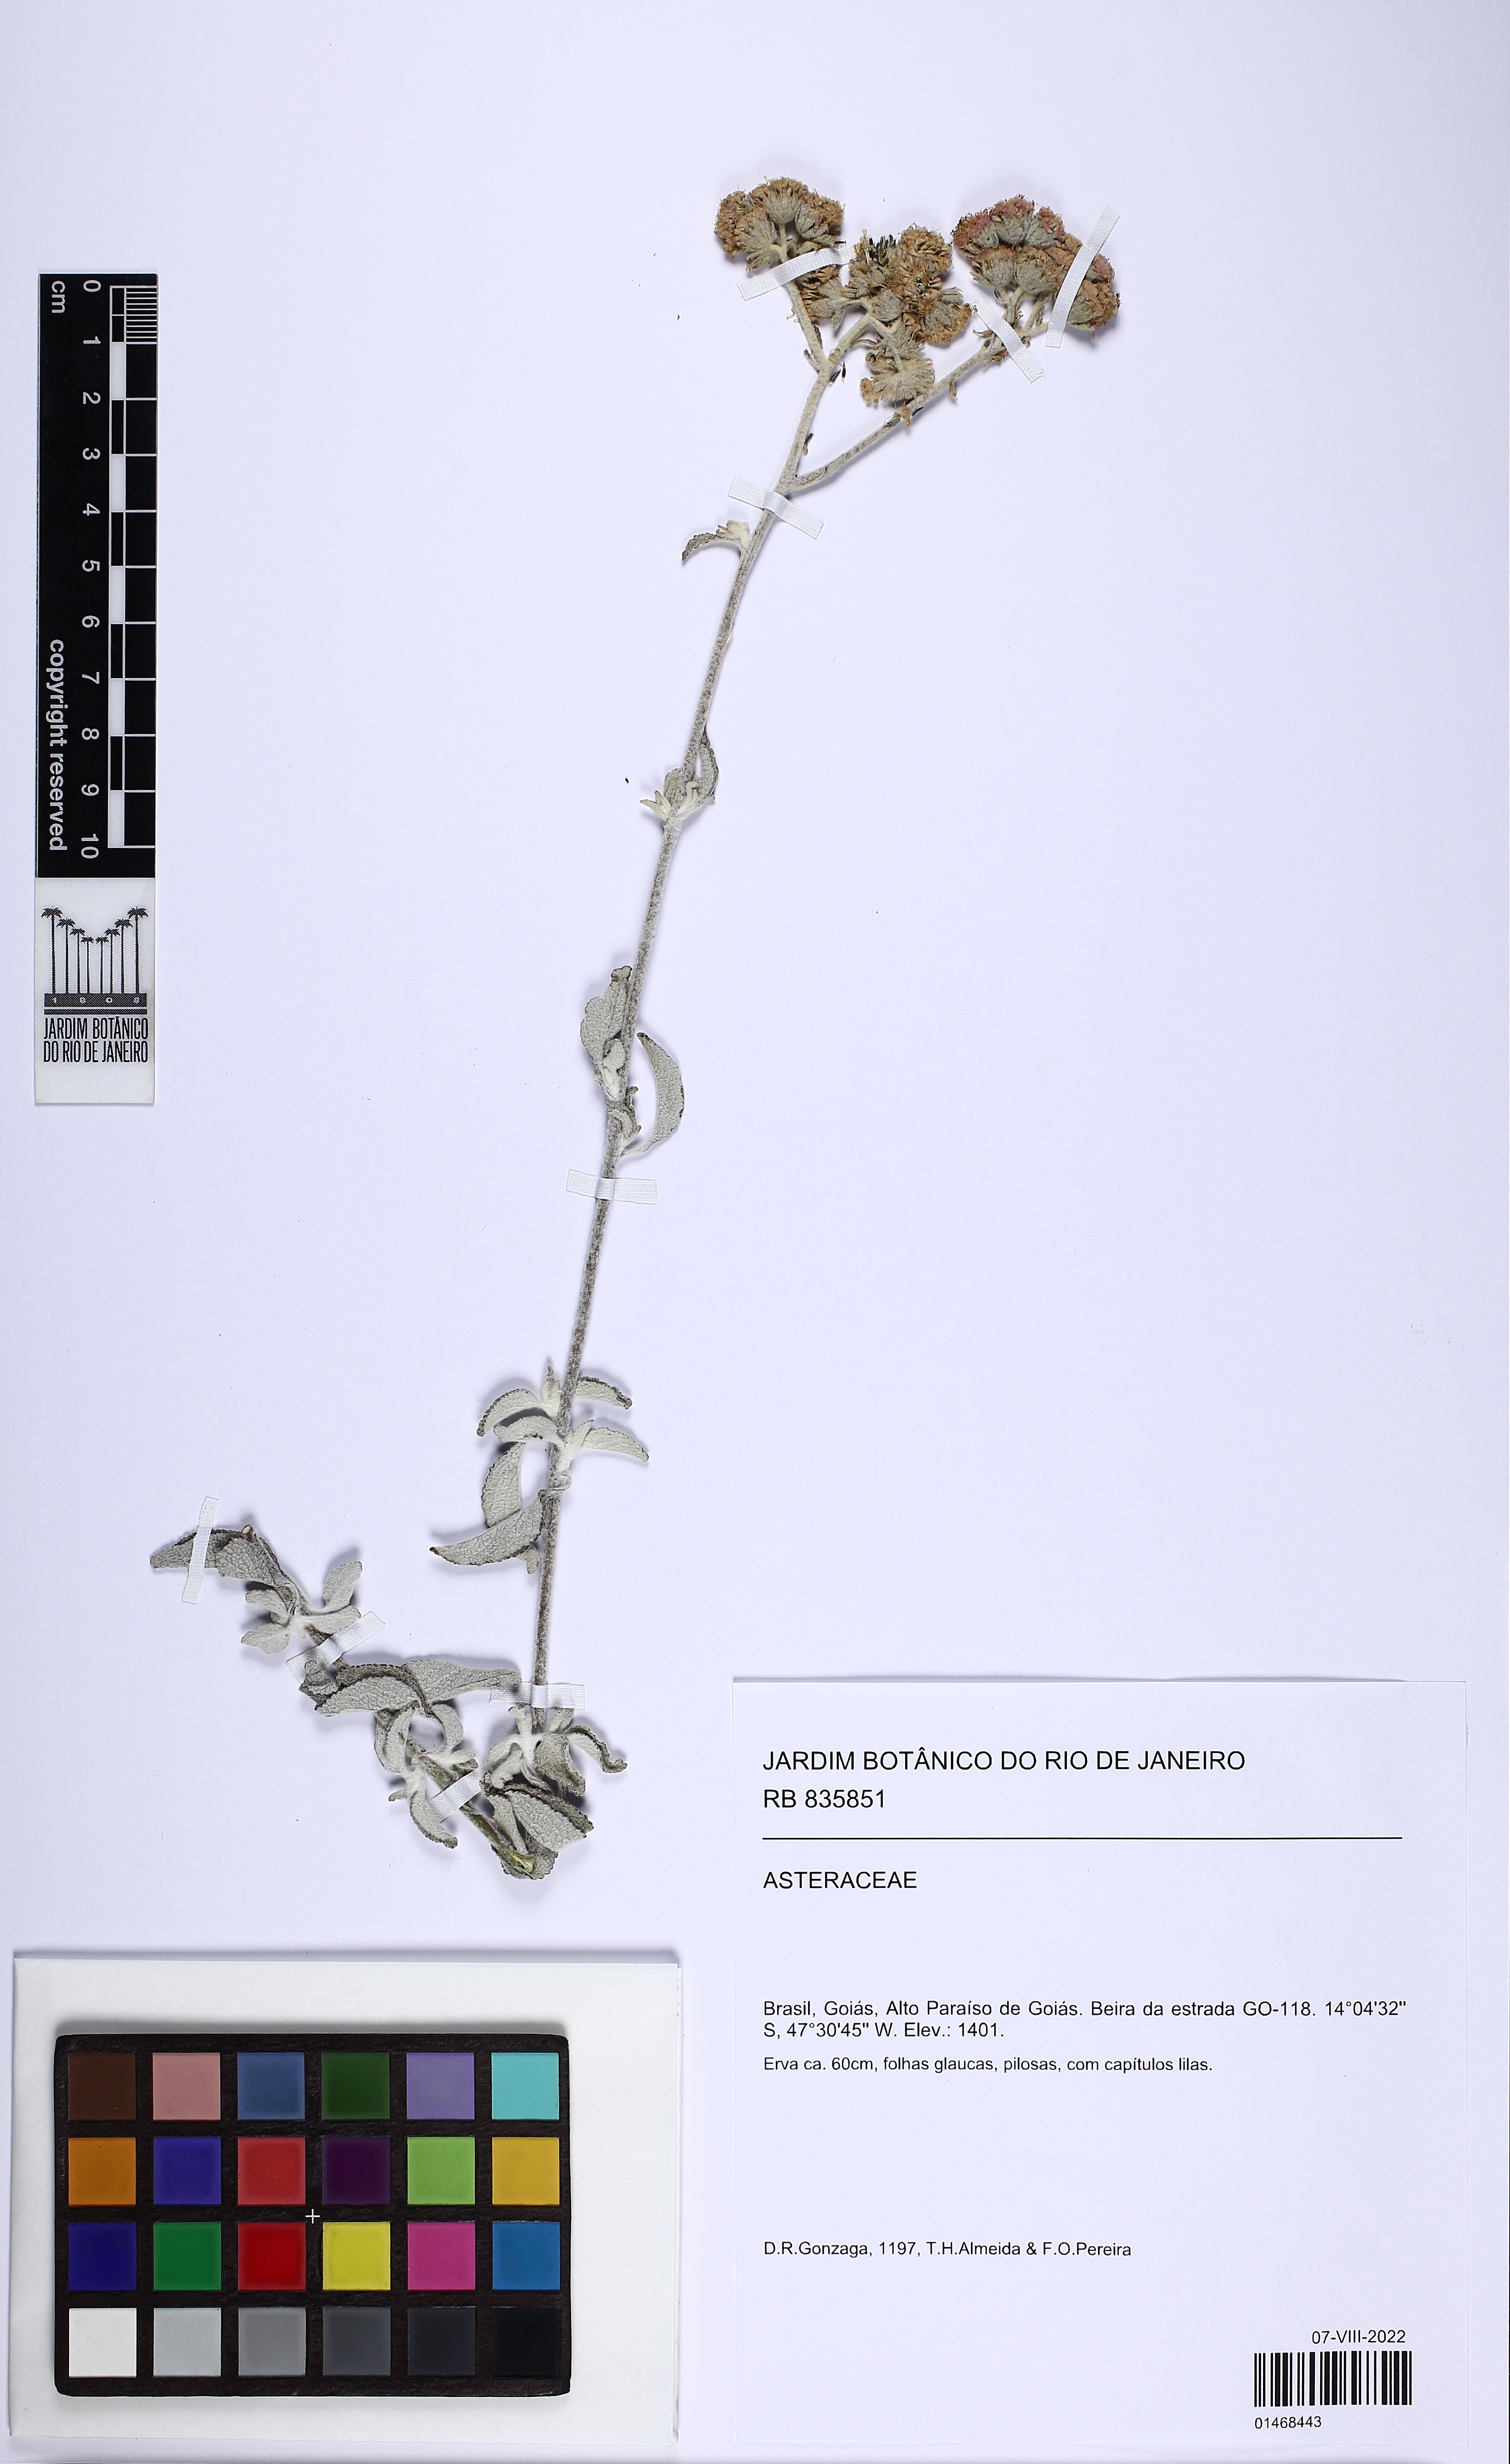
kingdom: Plantae
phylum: Tracheophyta
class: Magnoliopsida
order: Asterales
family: Asteraceae
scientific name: Asteraceae
